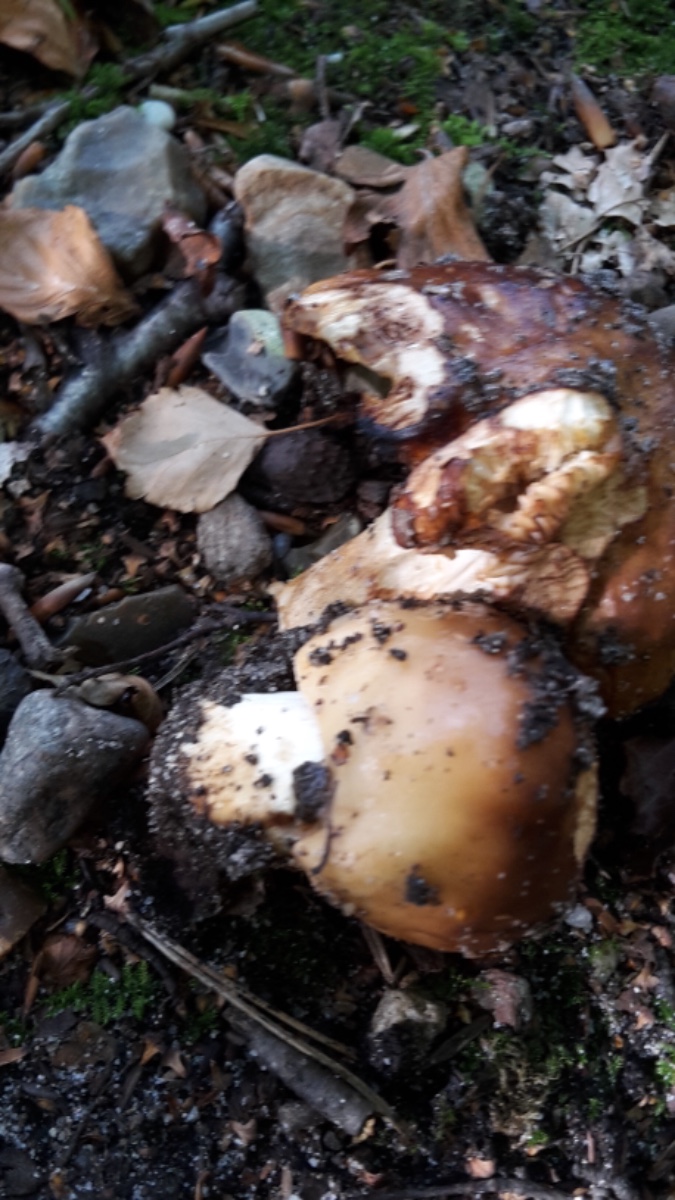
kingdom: Fungi
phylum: Basidiomycota
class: Agaricomycetes
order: Russulales
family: Russulaceae
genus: Russula
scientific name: Russula foetens
